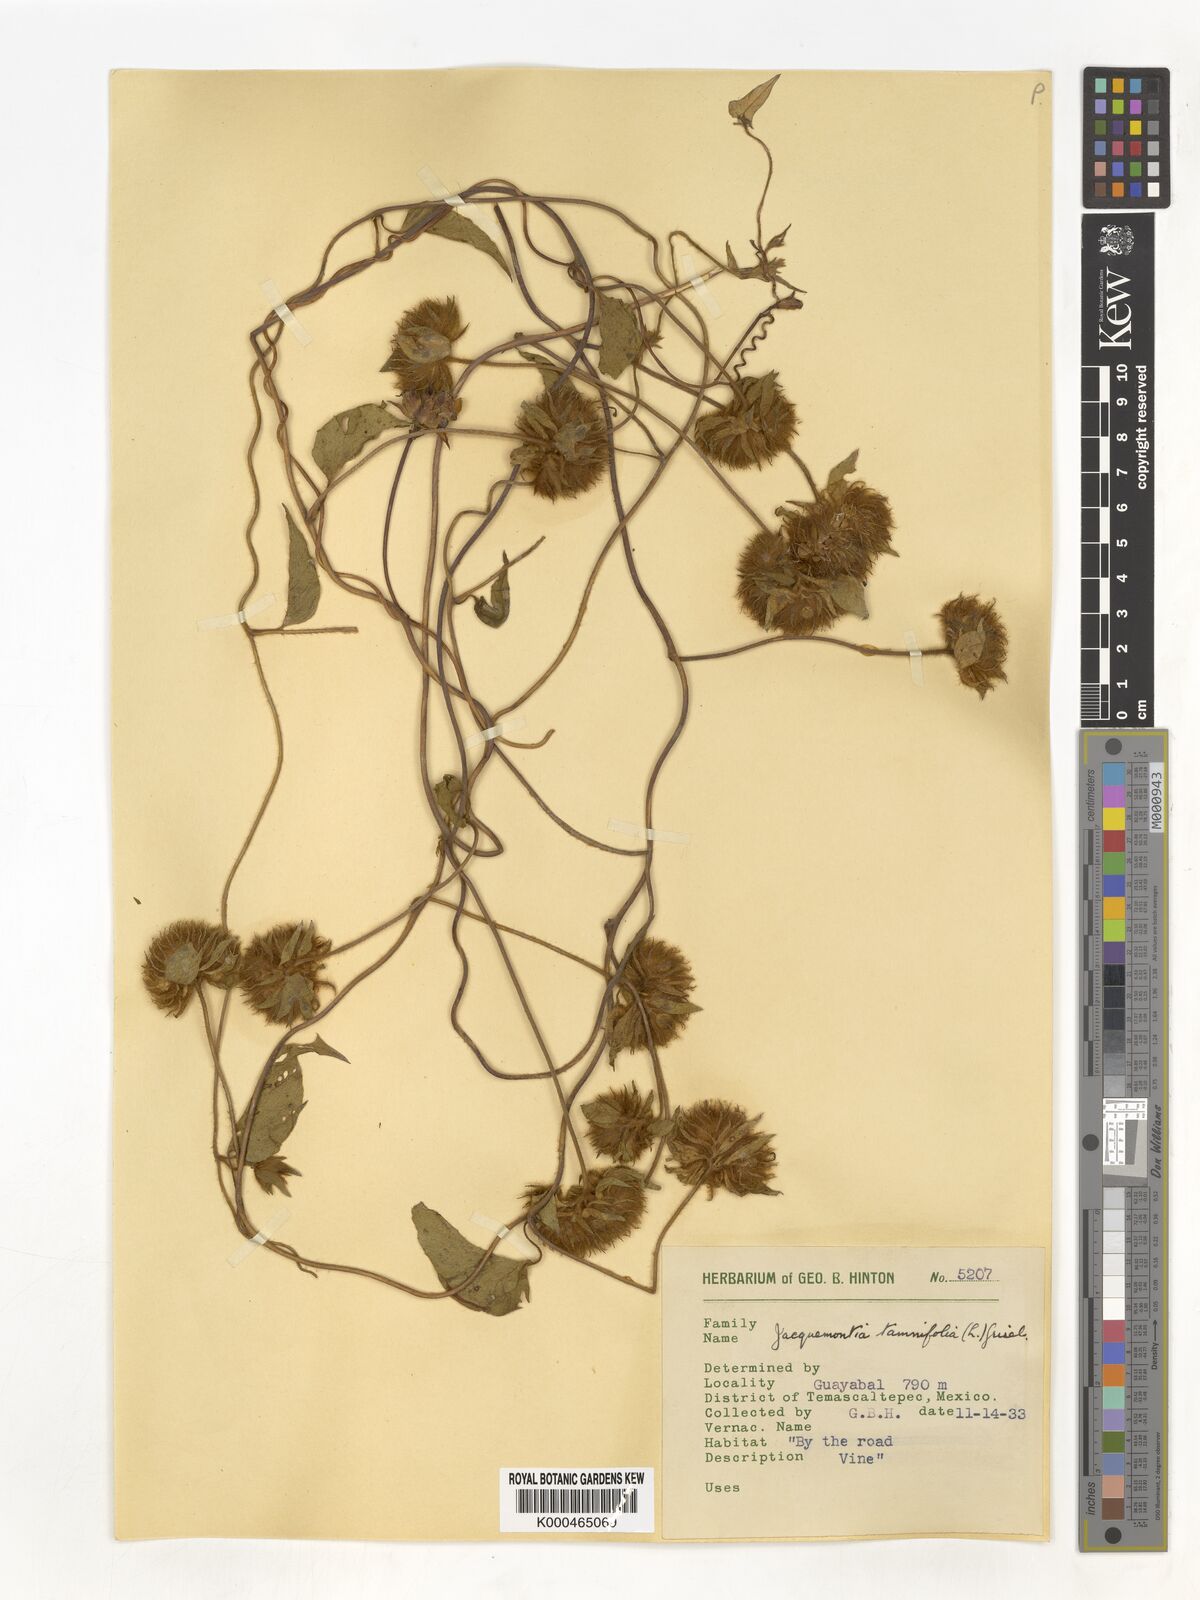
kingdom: Plantae
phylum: Tracheophyta
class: Magnoliopsida
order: Solanales
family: Convolvulaceae
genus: Jacquemontia
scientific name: Jacquemontia tamnifolia
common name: Hairy clustervine
